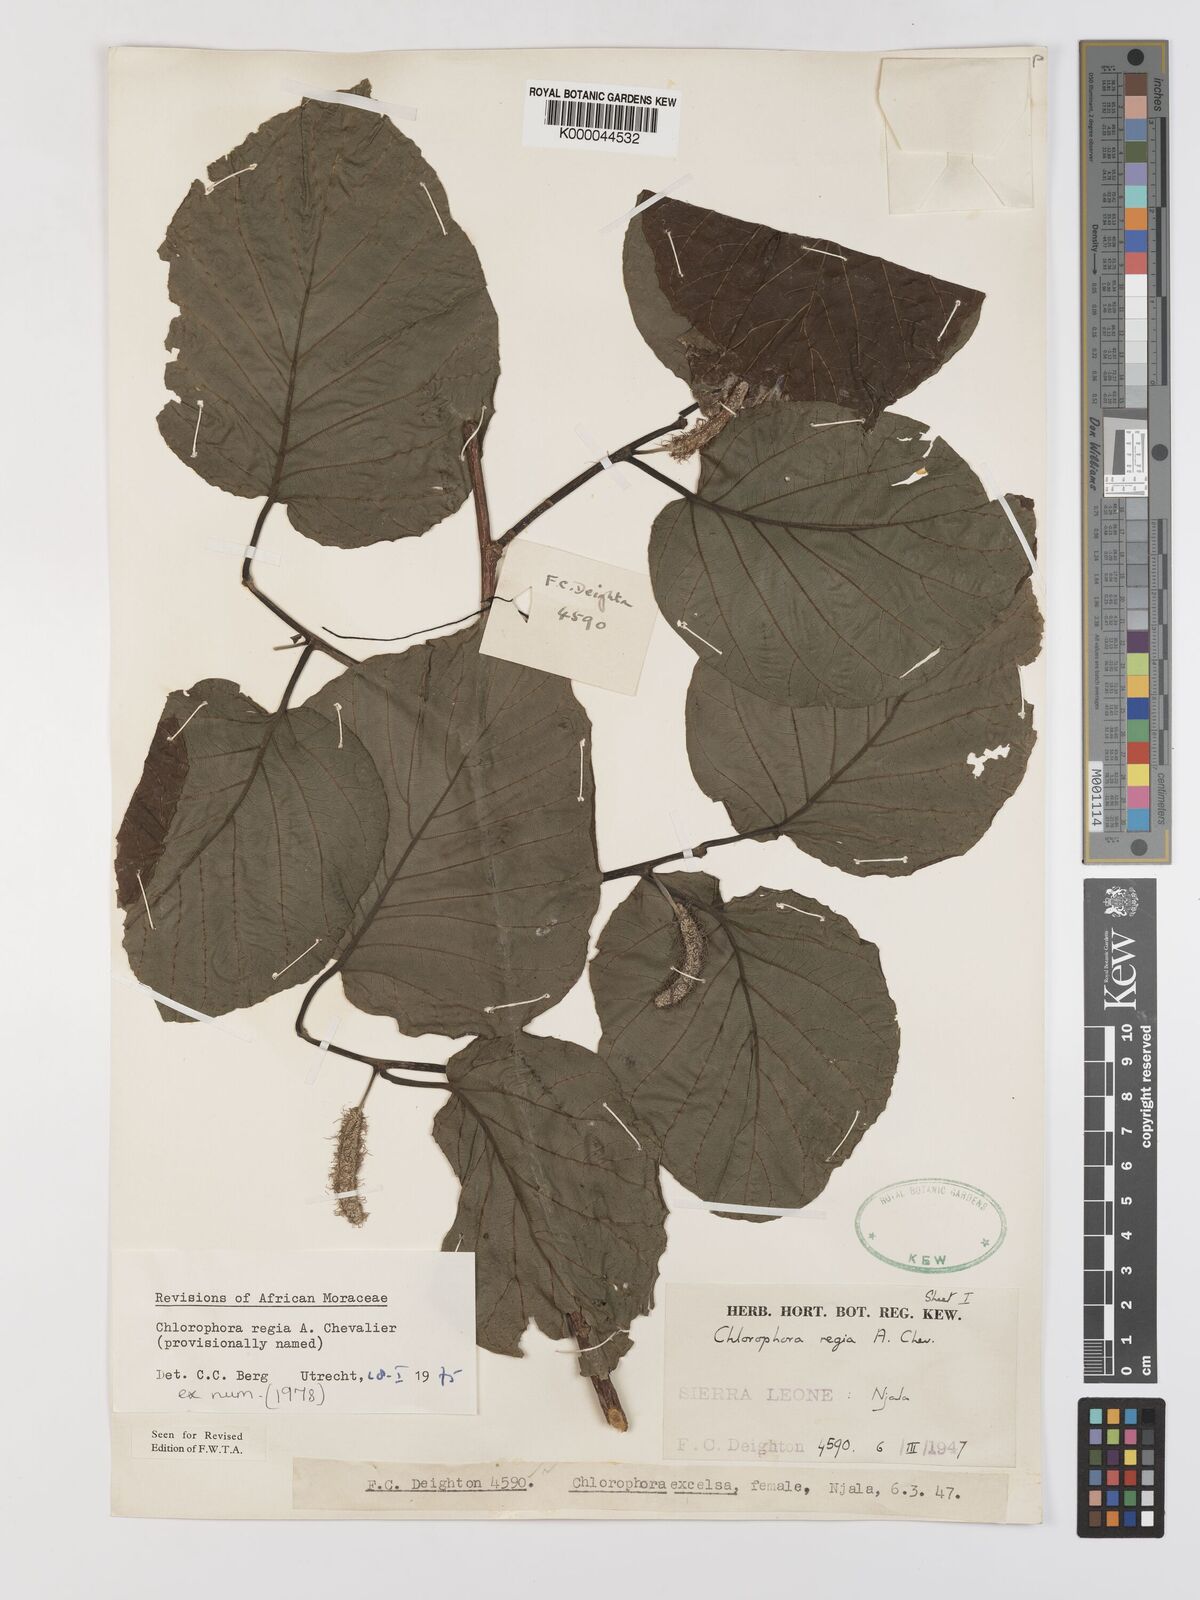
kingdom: Plantae
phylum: Tracheophyta
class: Magnoliopsida
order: Rosales
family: Moraceae
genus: Milicia
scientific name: Milicia regia
